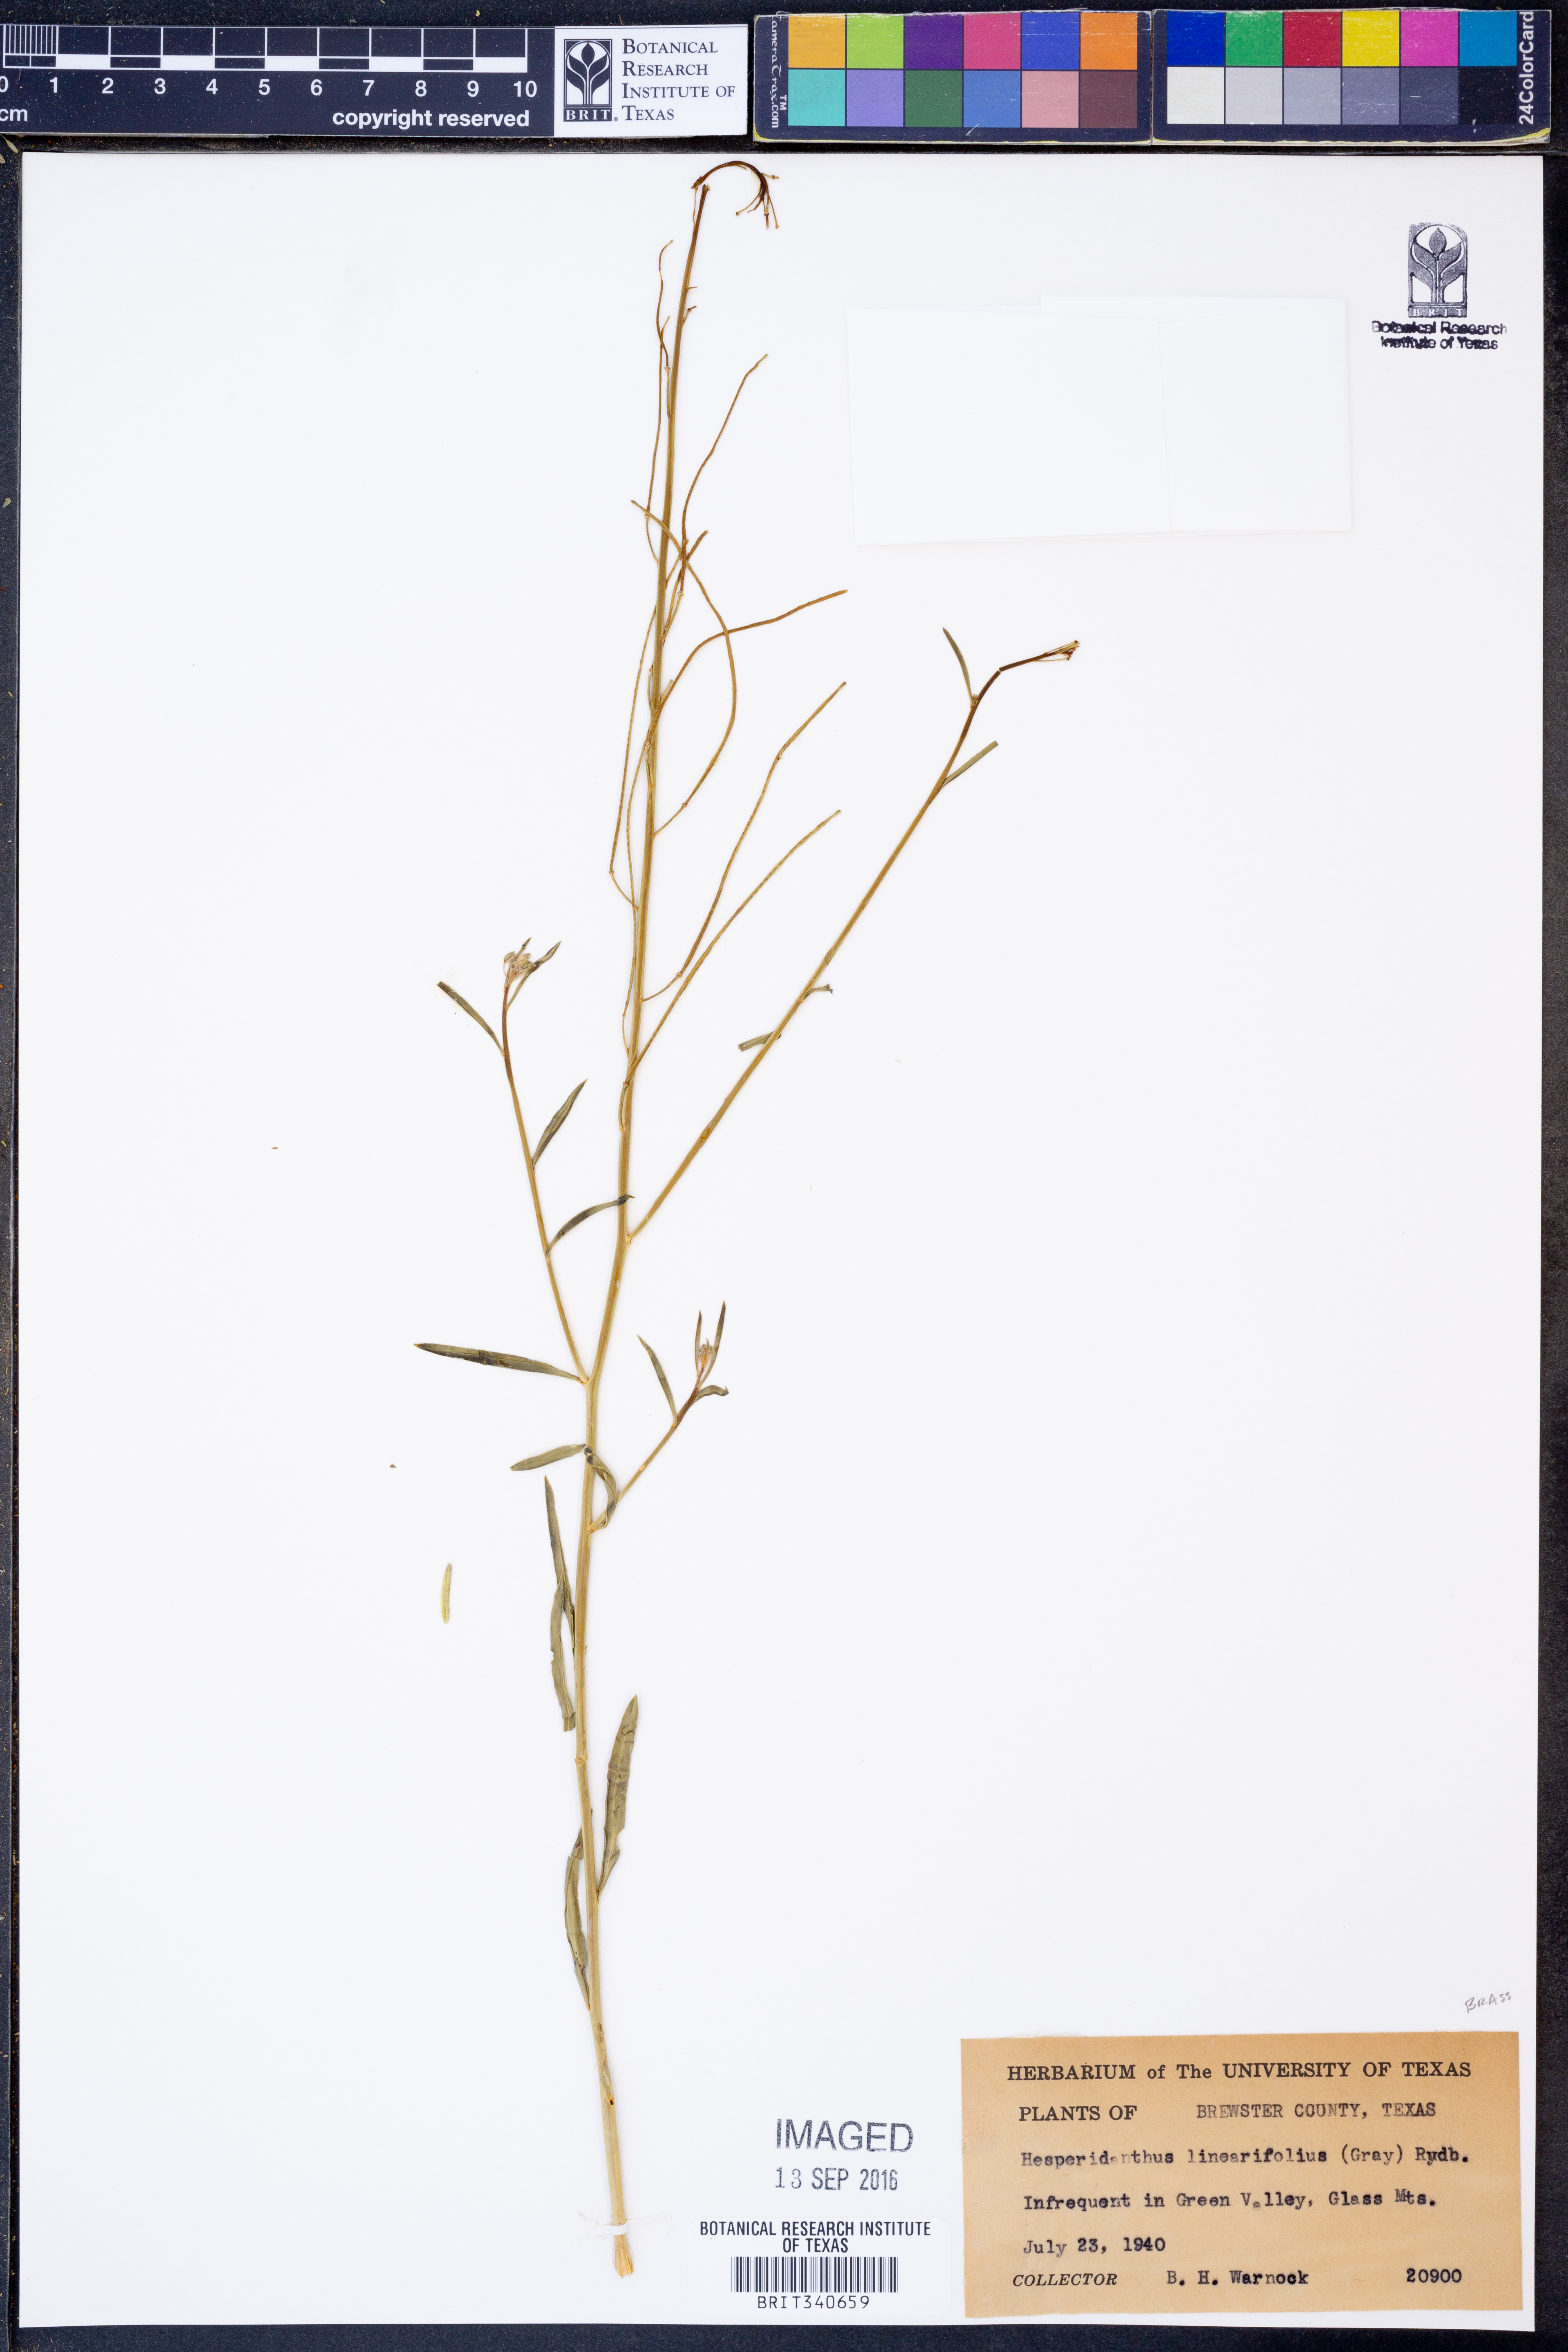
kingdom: Plantae
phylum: Tracheophyta
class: Magnoliopsida
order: Brassicales
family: Brassicaceae
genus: Hesperidanthus
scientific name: Hesperidanthus linearifolius
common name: Slim-leaf plains mustard
